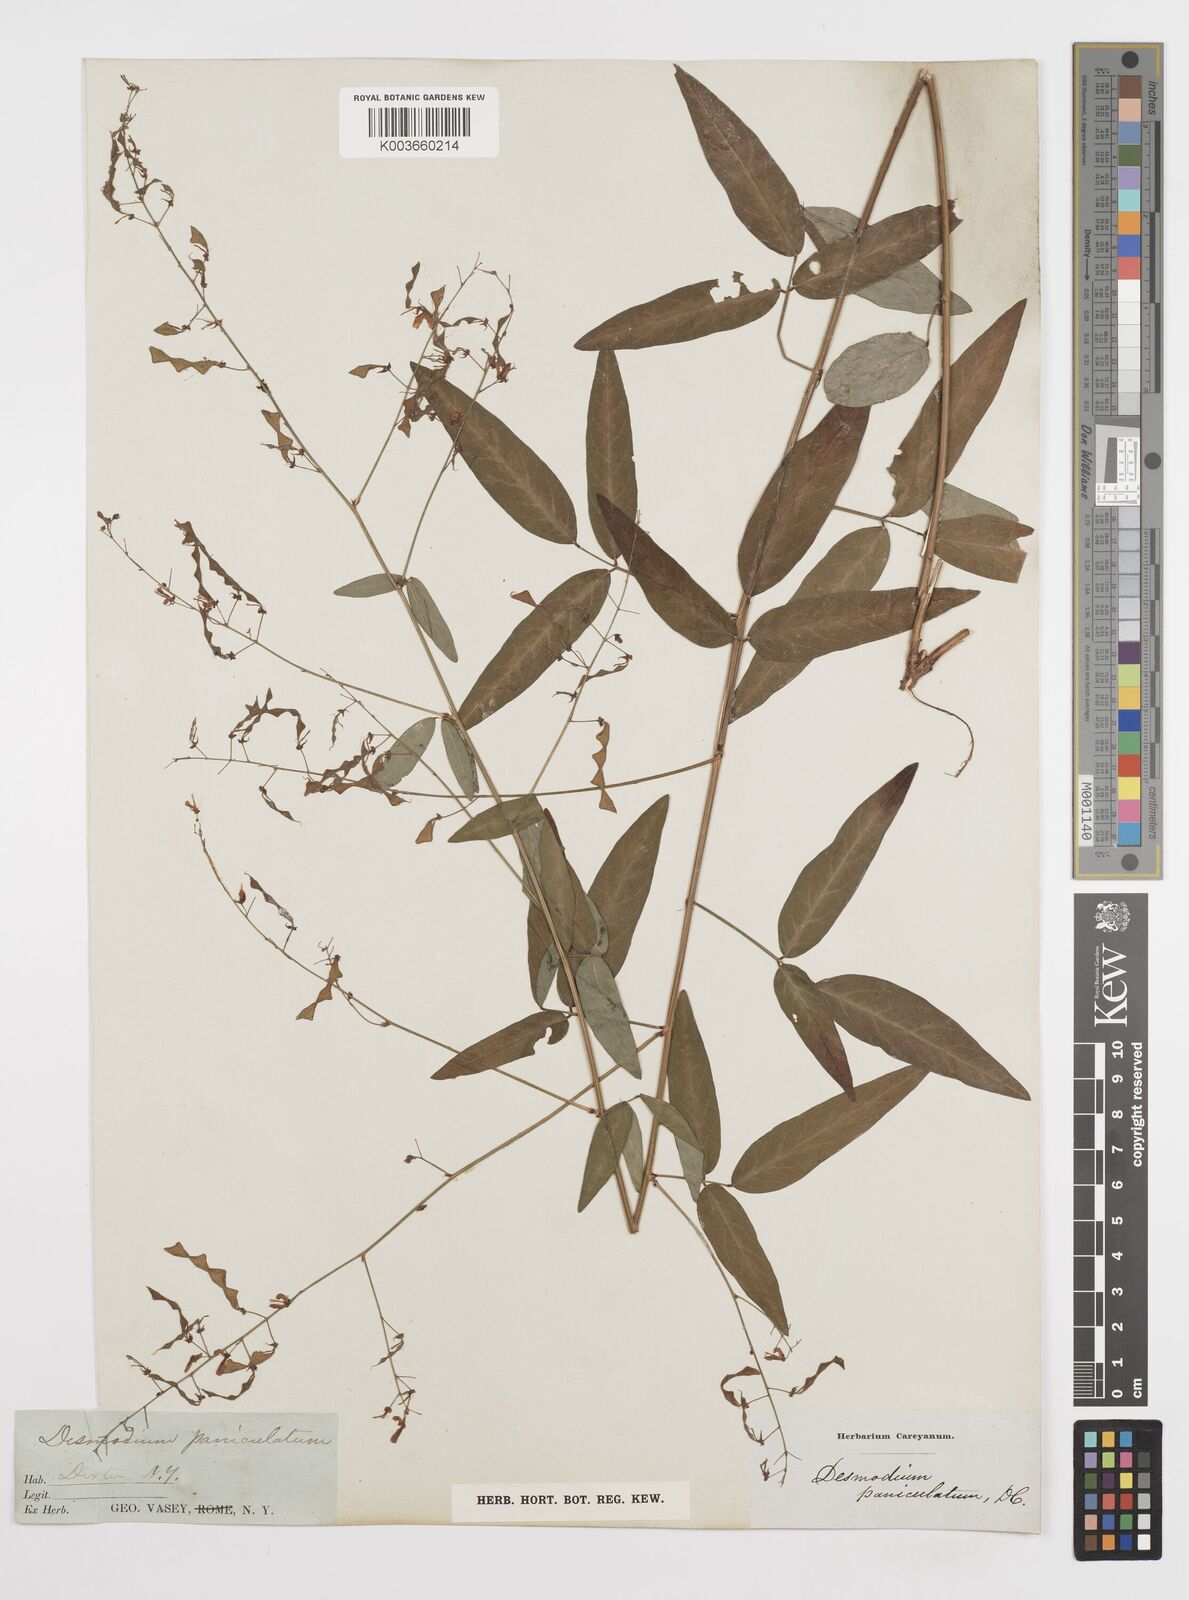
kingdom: Plantae
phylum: Tracheophyta
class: Magnoliopsida
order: Fabales
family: Fabaceae
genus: Desmodium
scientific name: Desmodium paniculatum
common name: Panicled tick-clover
